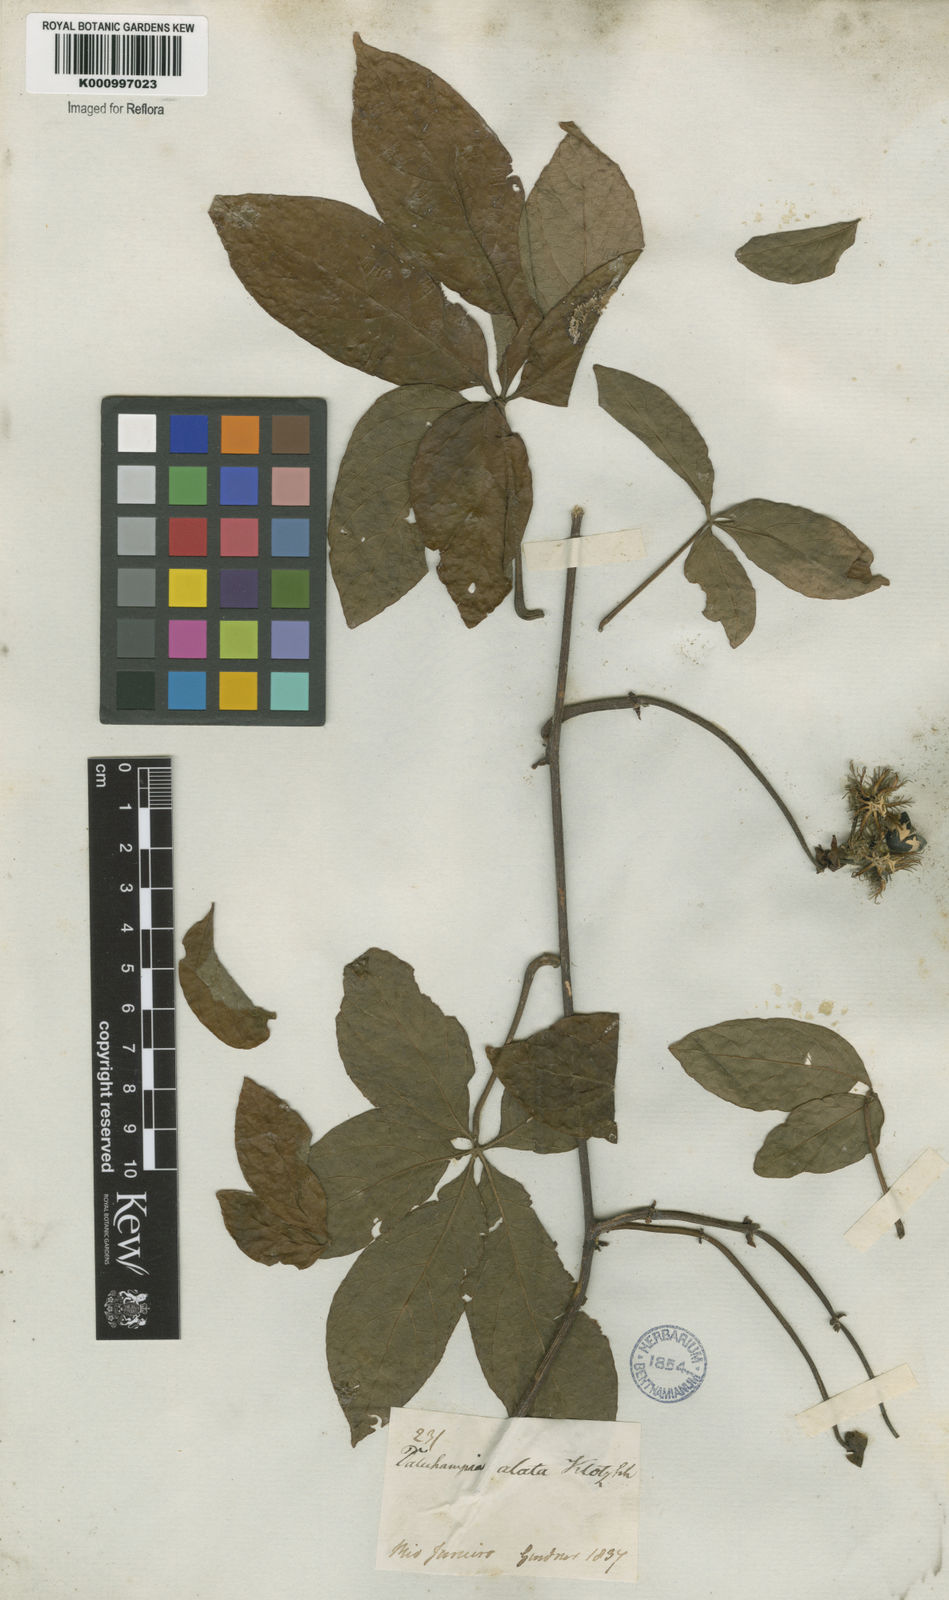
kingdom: Plantae
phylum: Tracheophyta
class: Magnoliopsida
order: Malpighiales
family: Euphorbiaceae
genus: Dalechampia
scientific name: Dalechampia alata
